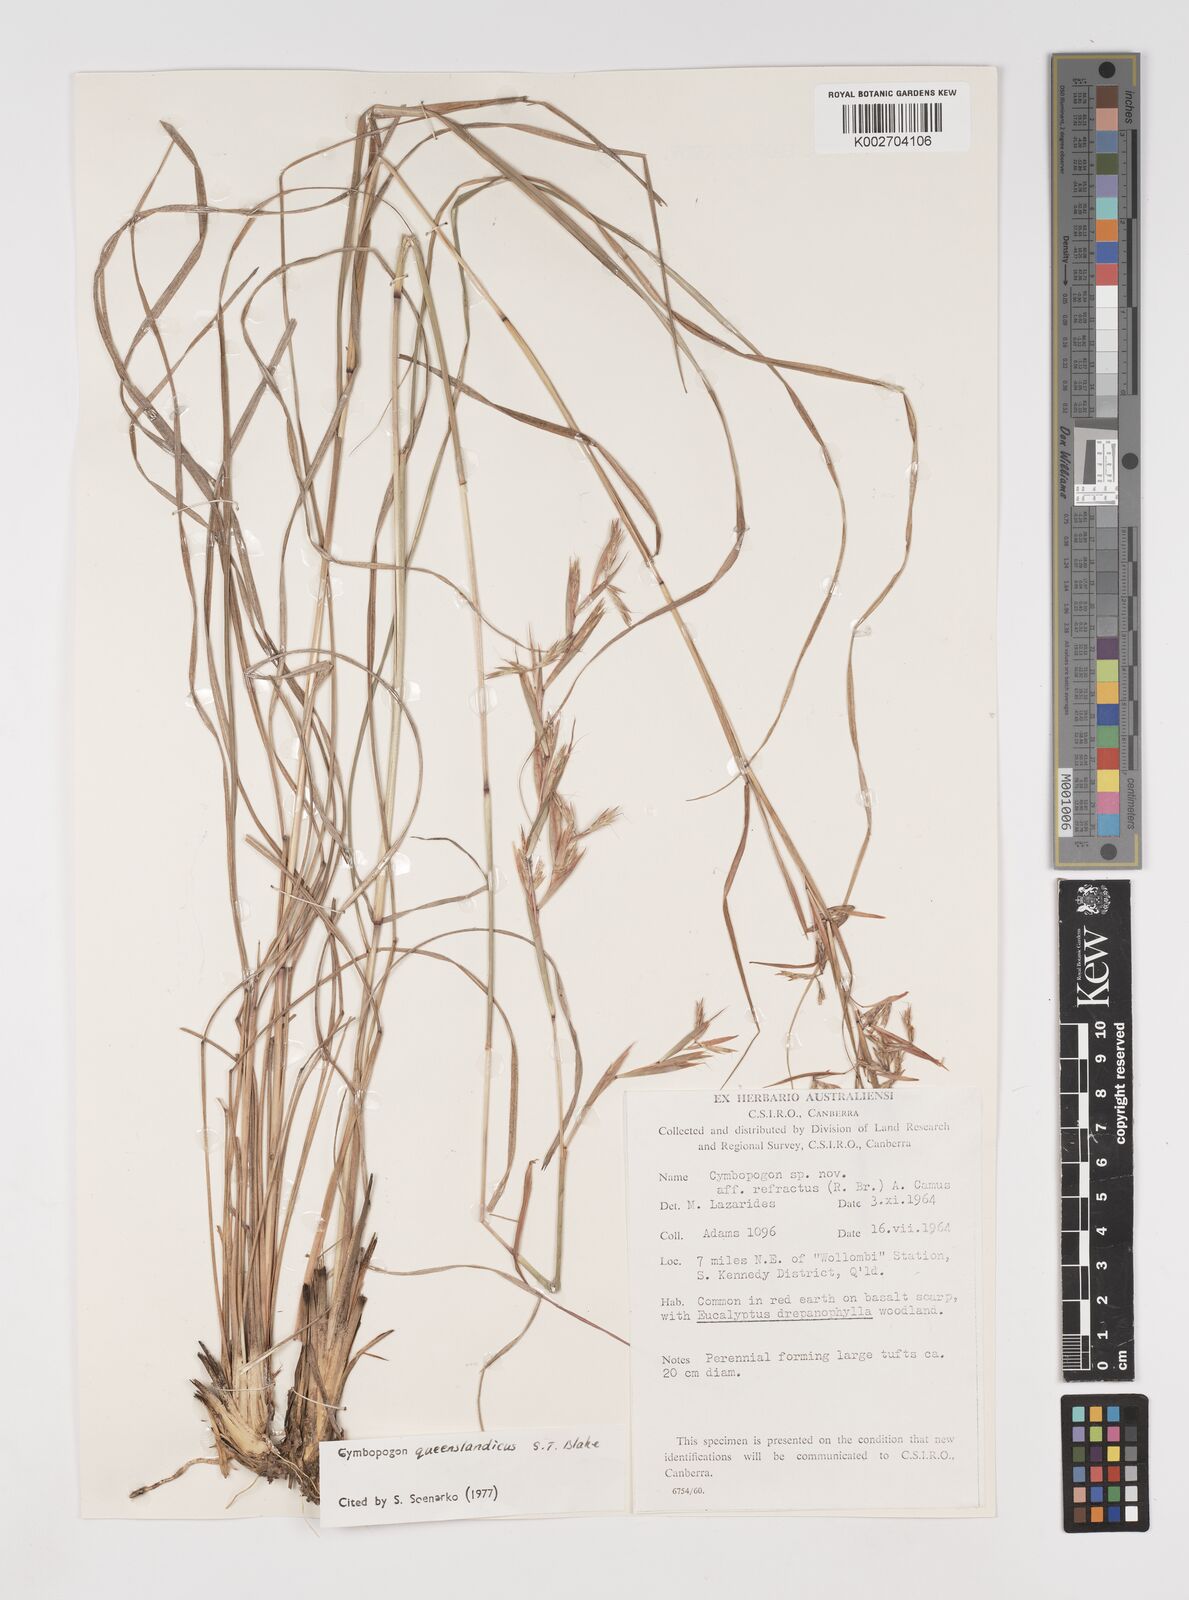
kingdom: Plantae
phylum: Tracheophyta
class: Liliopsida
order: Poales
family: Poaceae
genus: Cymbopogon
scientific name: Cymbopogon queenslandicus
